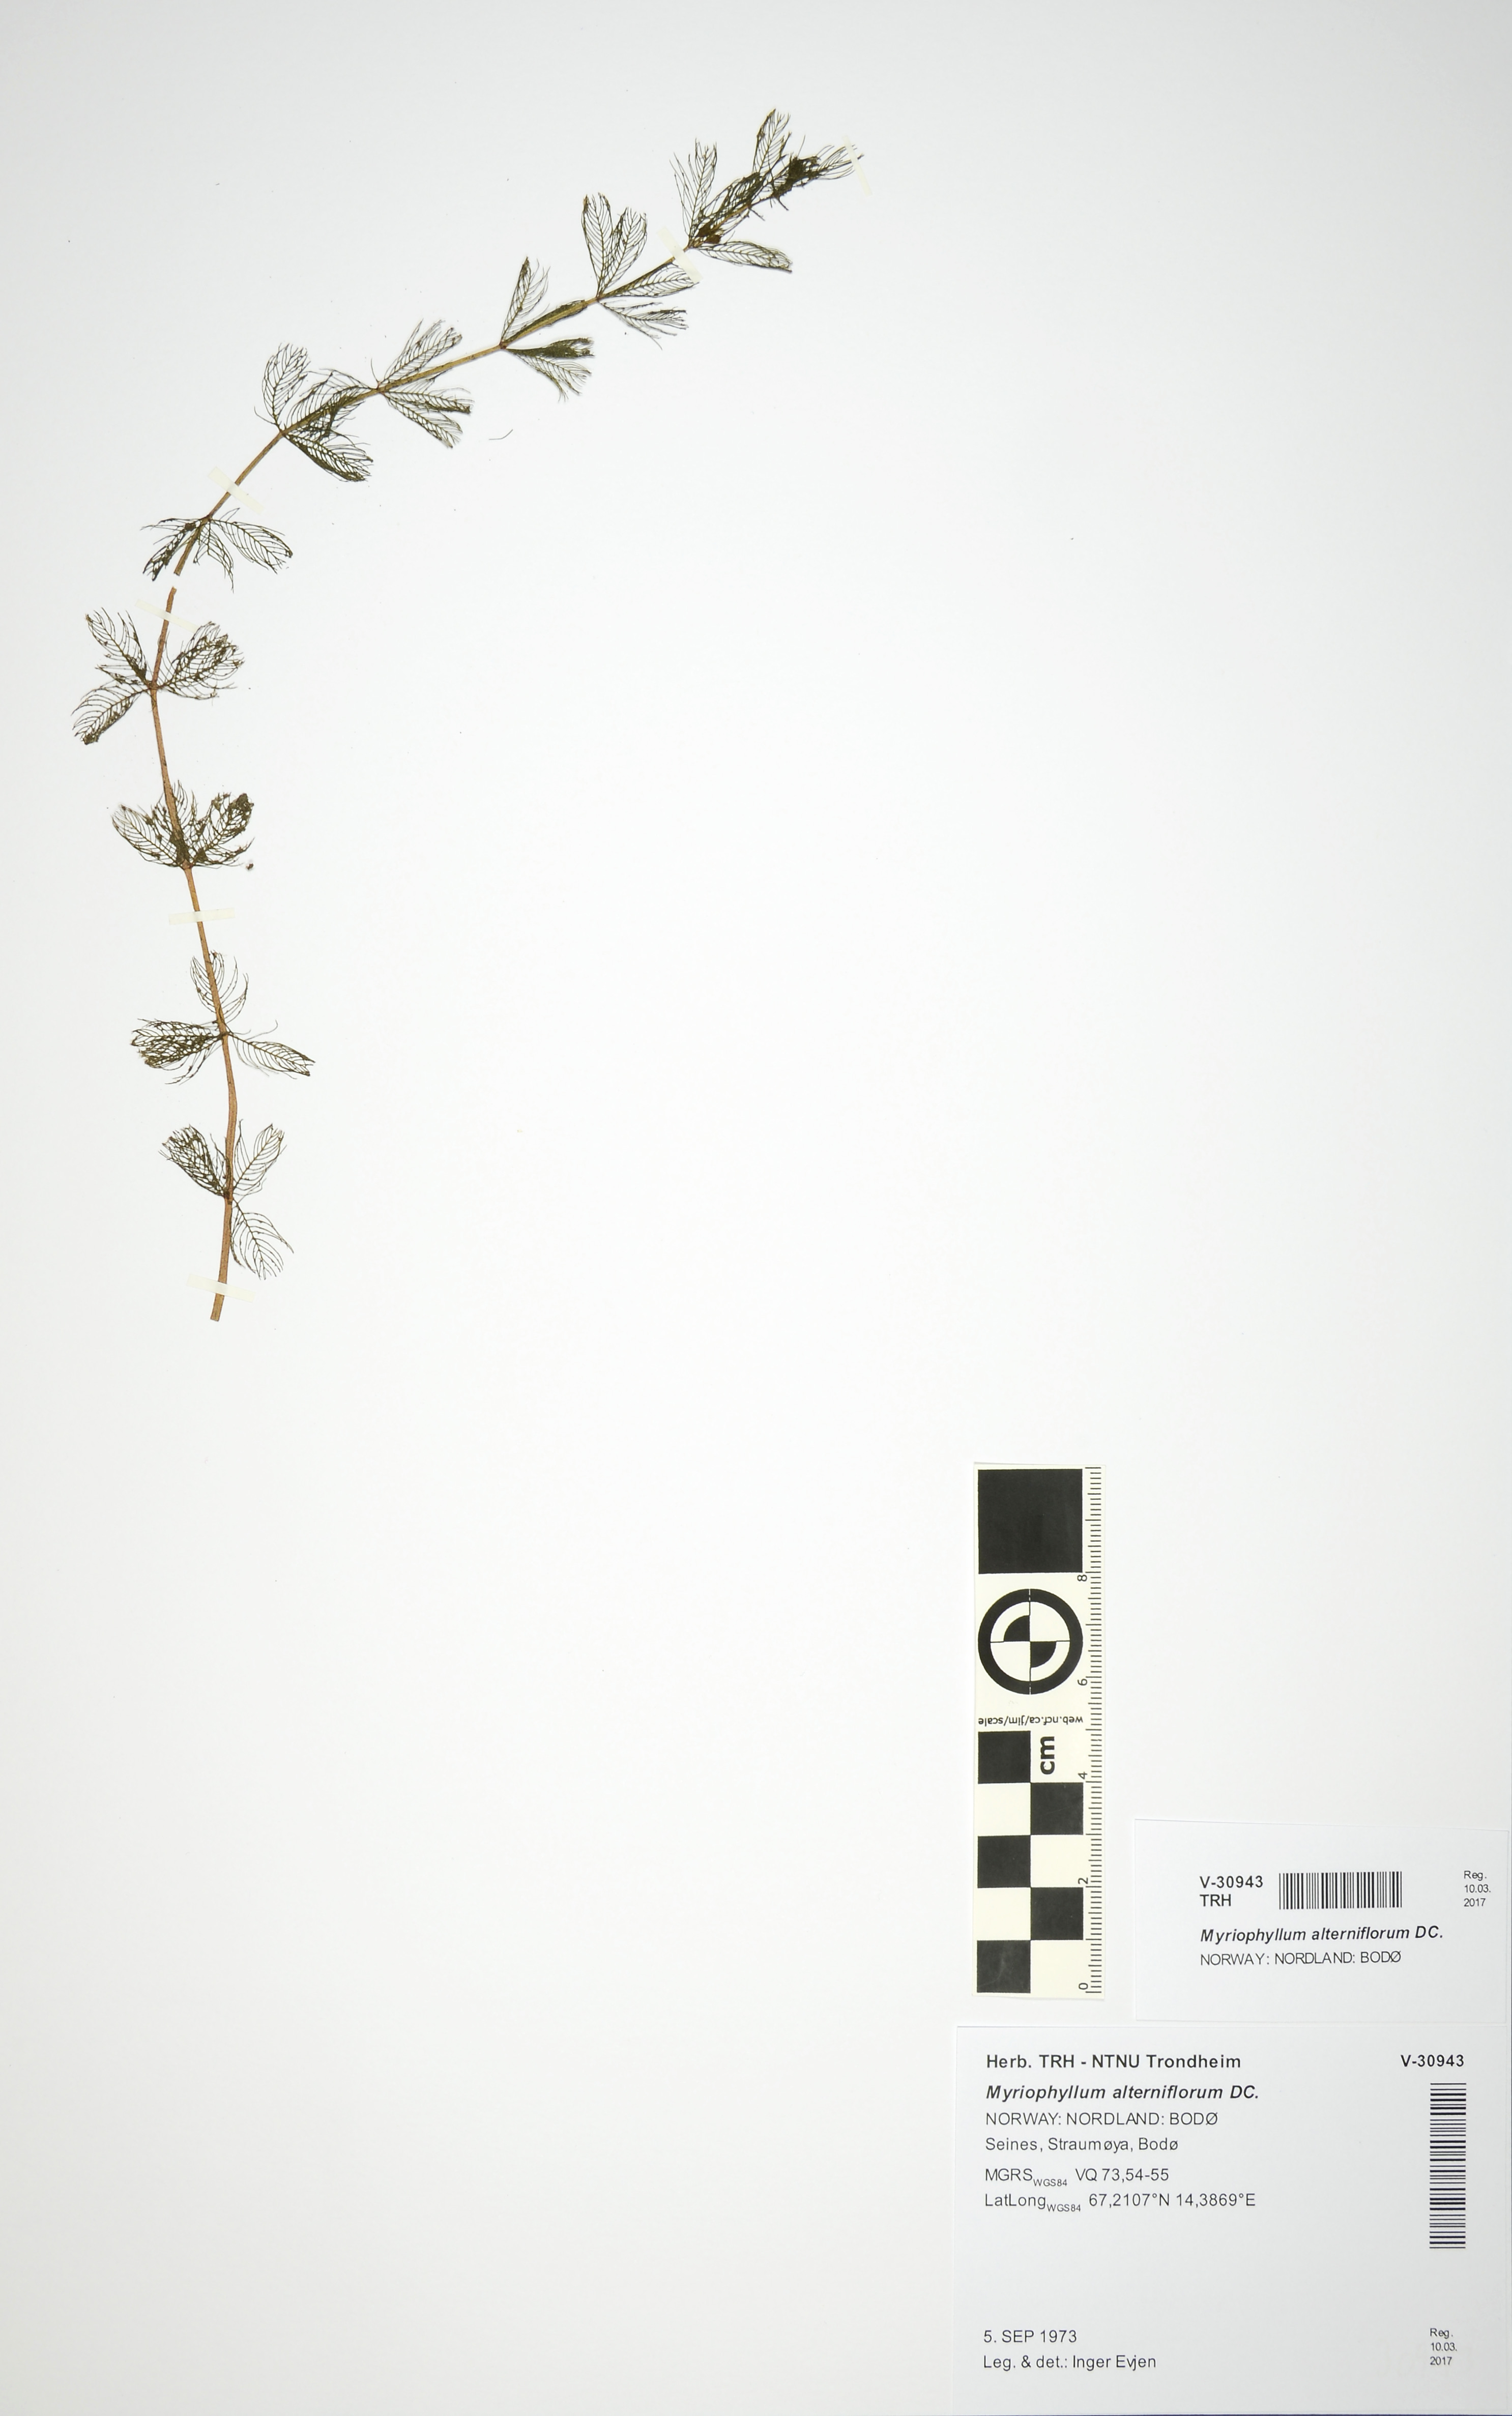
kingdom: Plantae
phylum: Tracheophyta
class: Magnoliopsida
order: Saxifragales
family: Haloragaceae
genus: Myriophyllum
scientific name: Myriophyllum alterniflorum
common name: Alternate water-milfoil
